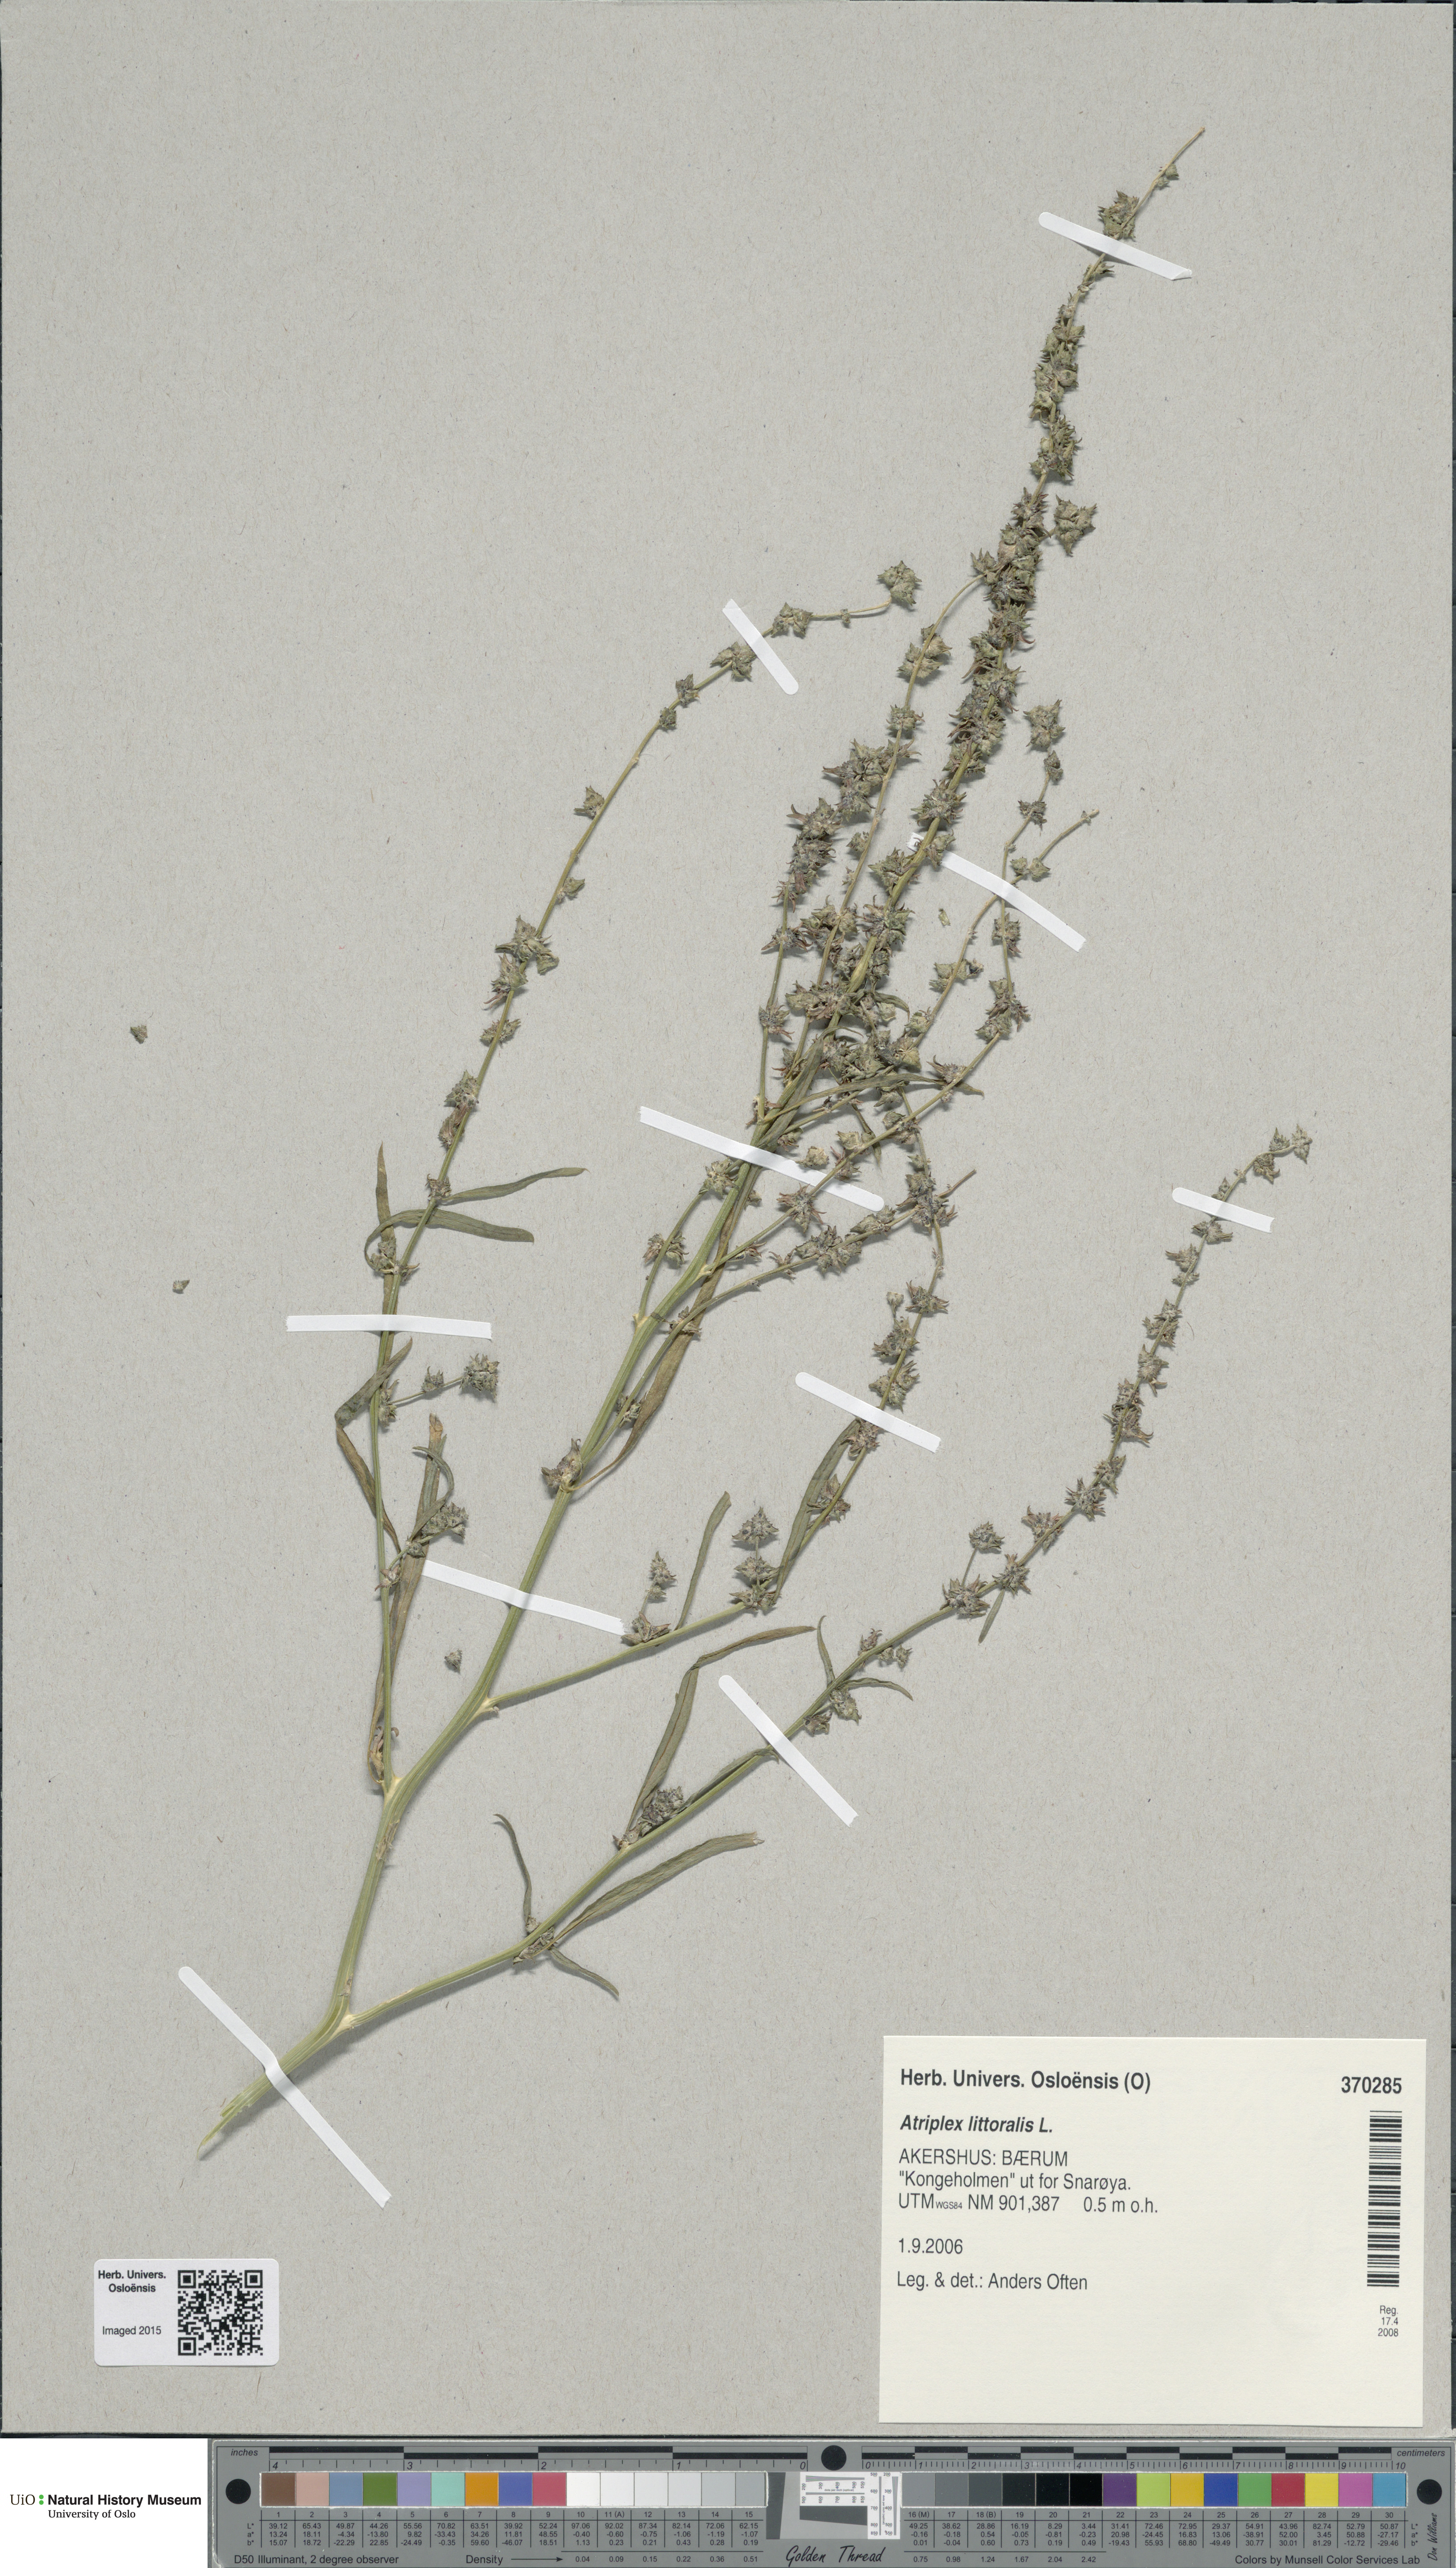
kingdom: Plantae
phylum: Tracheophyta
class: Magnoliopsida
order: Caryophyllales
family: Amaranthaceae
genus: Atriplex
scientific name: Atriplex littoralis
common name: Grass-leaved orache
